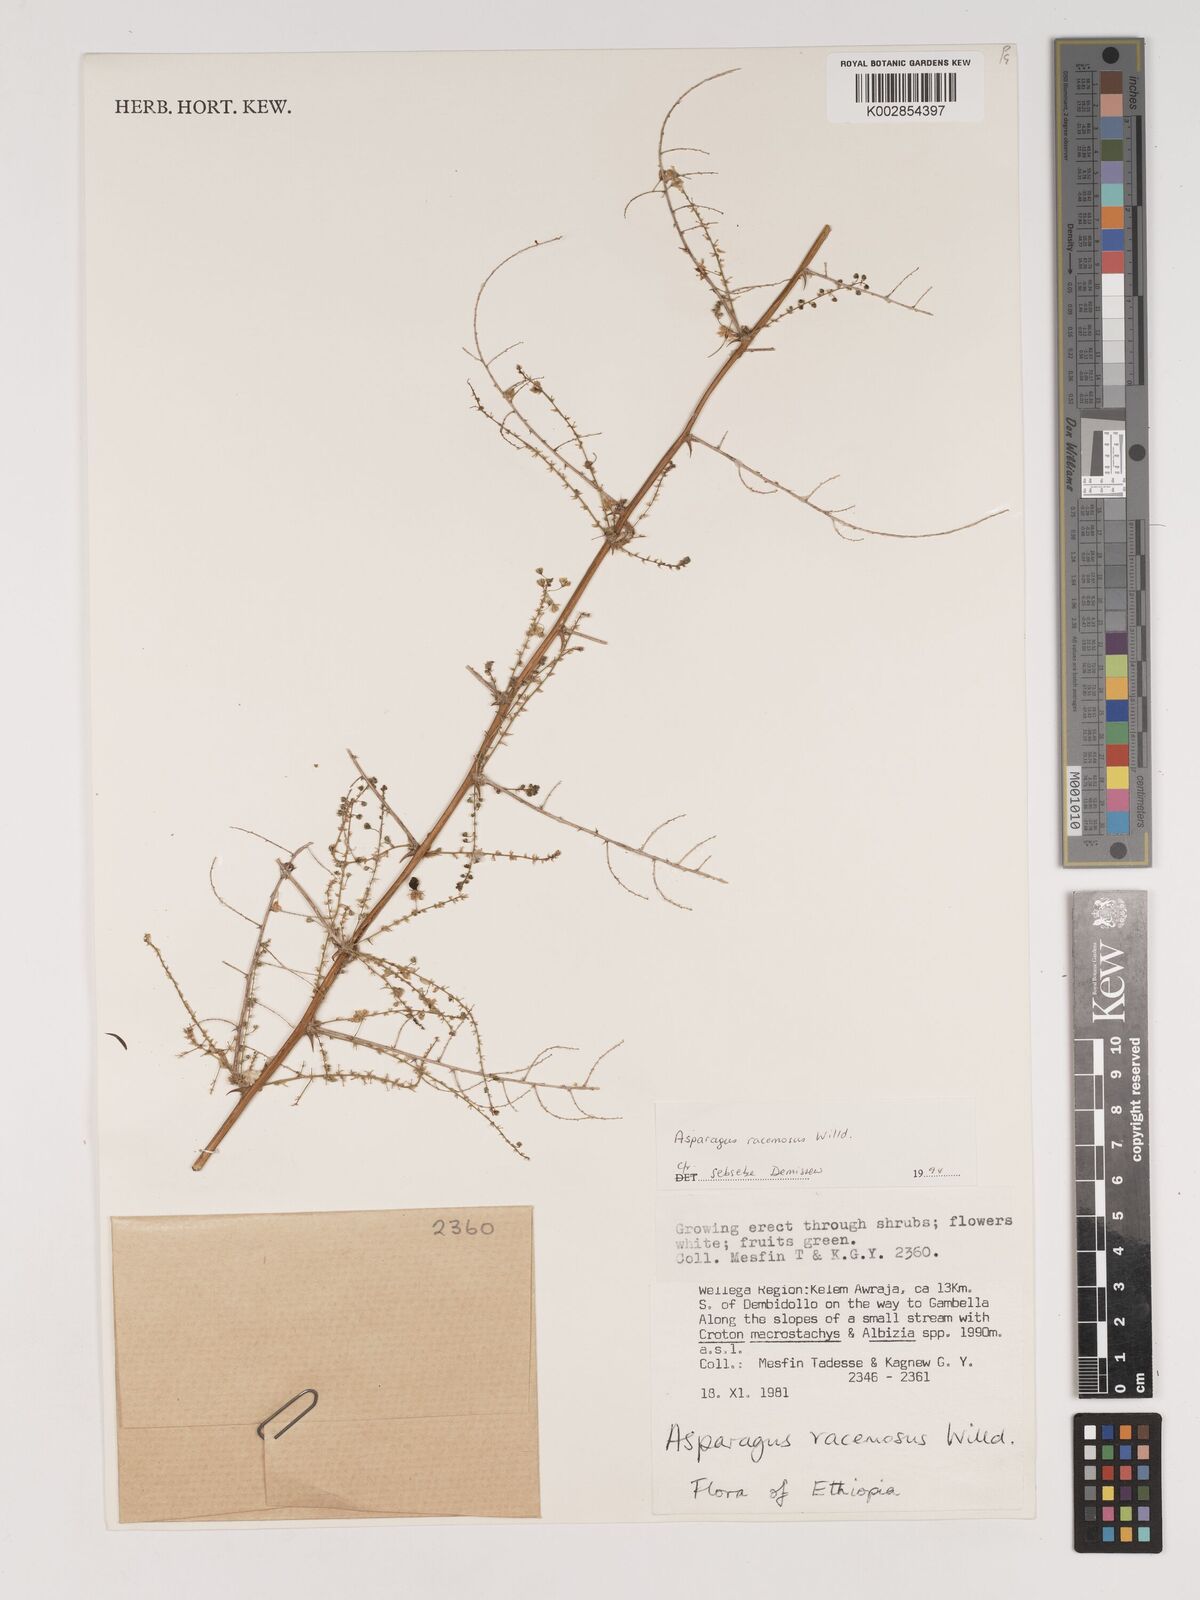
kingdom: Plantae
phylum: Tracheophyta
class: Liliopsida
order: Asparagales
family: Asparagaceae
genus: Asparagus
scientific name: Asparagus racemosus
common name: Asparagus-fern
